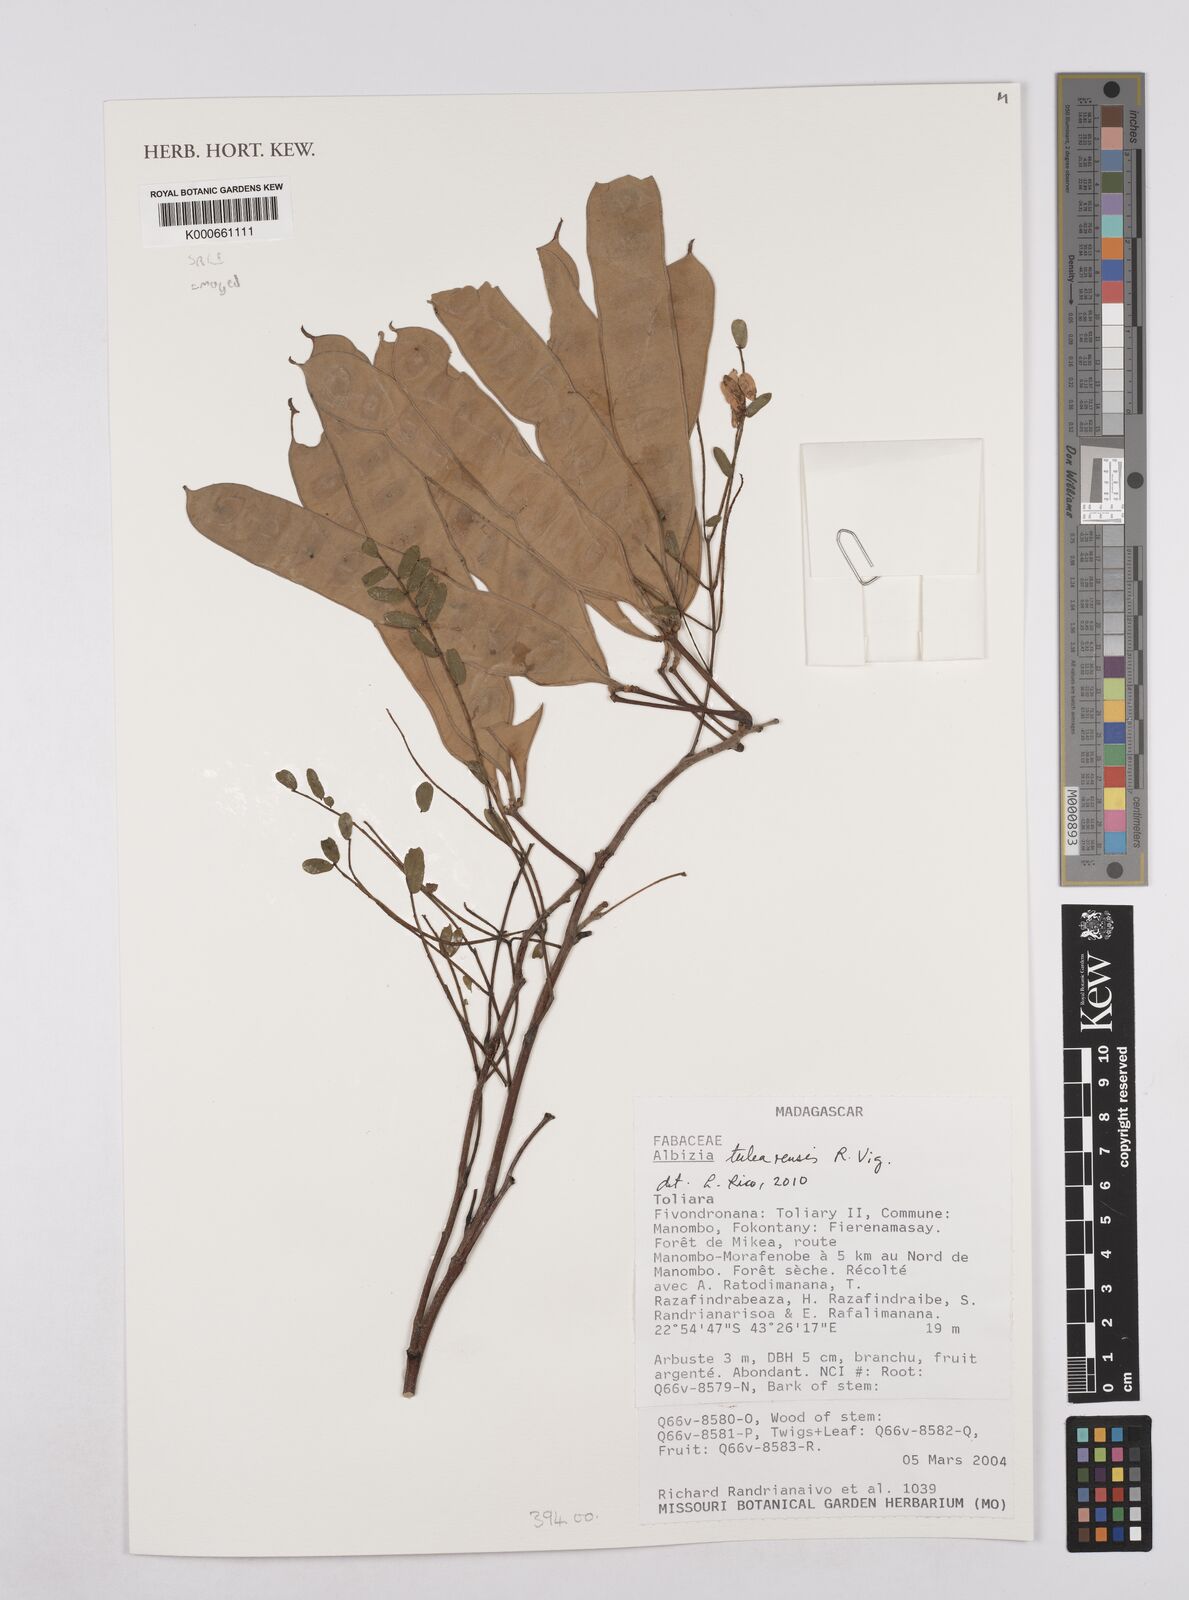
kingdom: Plantae
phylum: Tracheophyta
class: Magnoliopsida
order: Fabales
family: Fabaceae
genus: Albizia
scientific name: Albizia tulearensis
